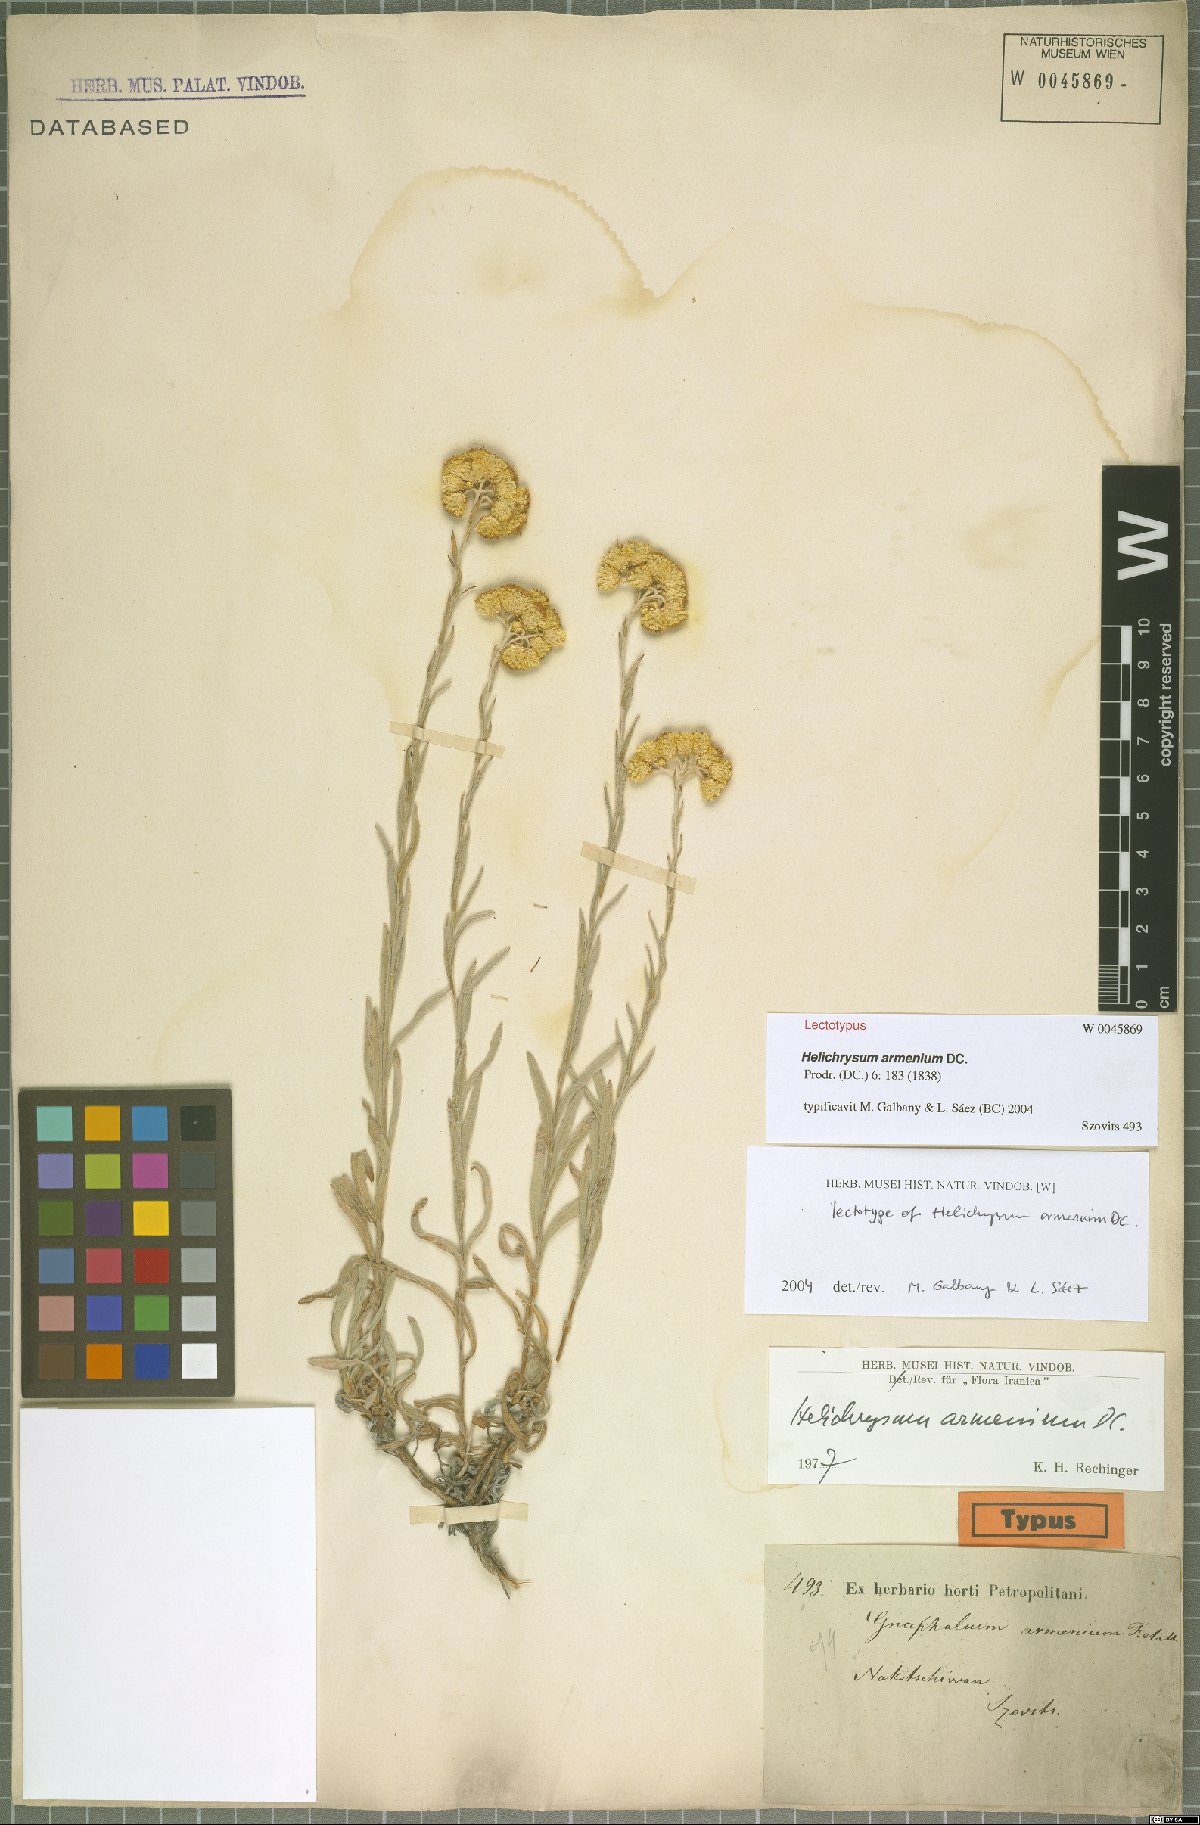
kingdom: Plantae
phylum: Tracheophyta
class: Magnoliopsida
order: Asterales
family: Asteraceae
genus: Helichrysum
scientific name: Helichrysum armenium
